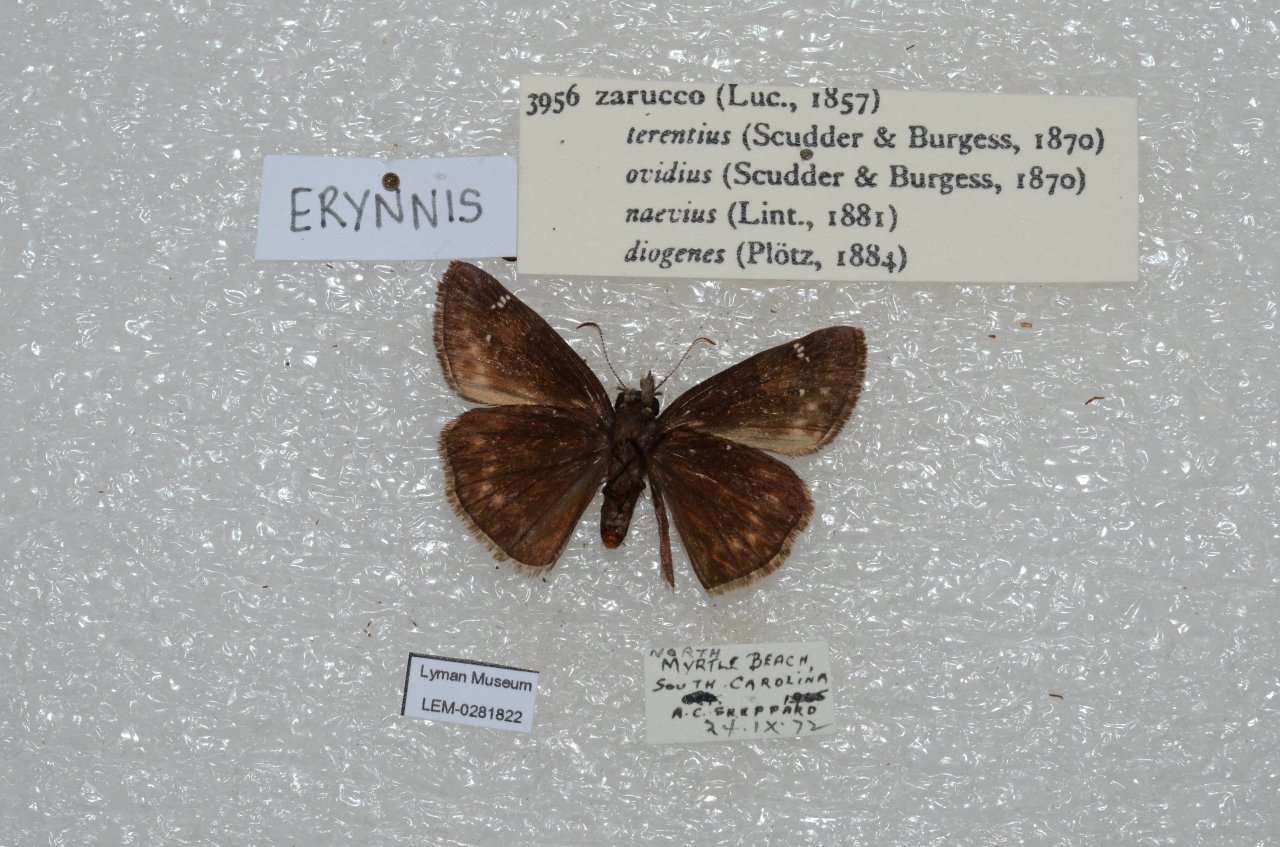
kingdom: Animalia
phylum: Arthropoda
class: Insecta
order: Lepidoptera
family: Hesperiidae
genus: Erynnis
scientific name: Erynnis zarucco
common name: Zarucco Duskywing
